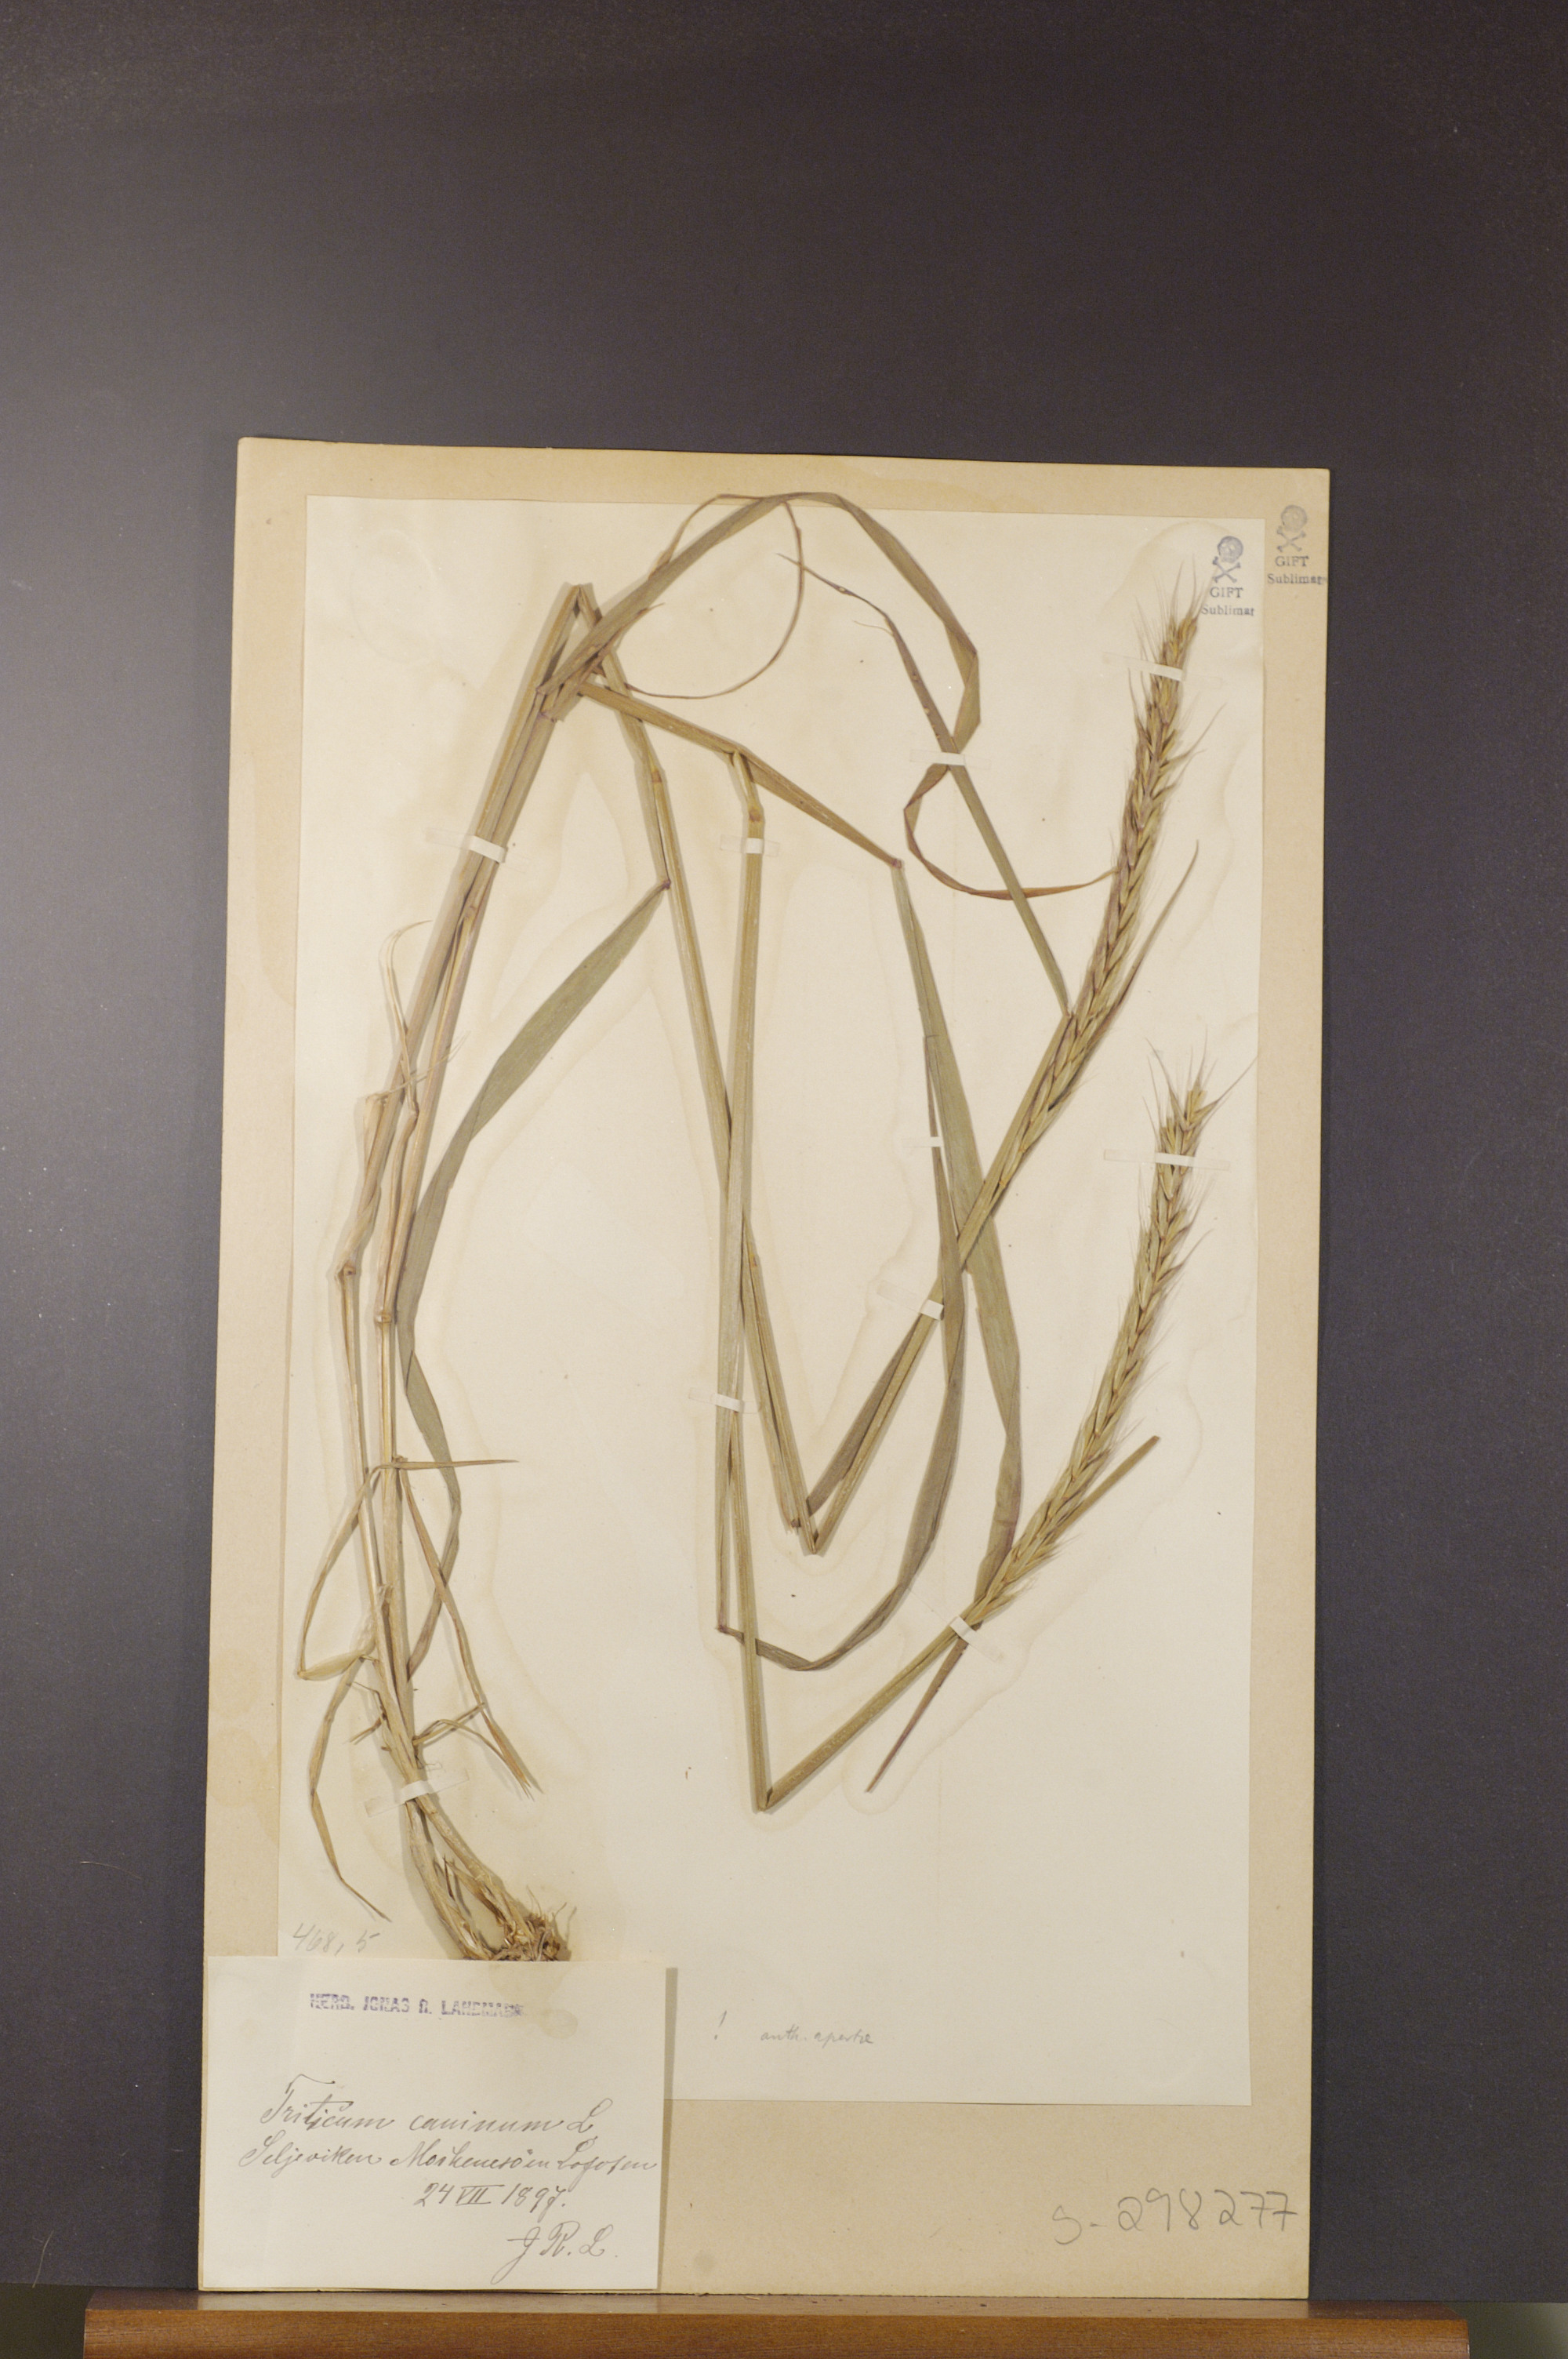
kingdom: Plantae
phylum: Tracheophyta
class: Liliopsida
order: Poales
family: Poaceae
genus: Elymus
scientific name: Elymus caninus
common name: Bearded couch
